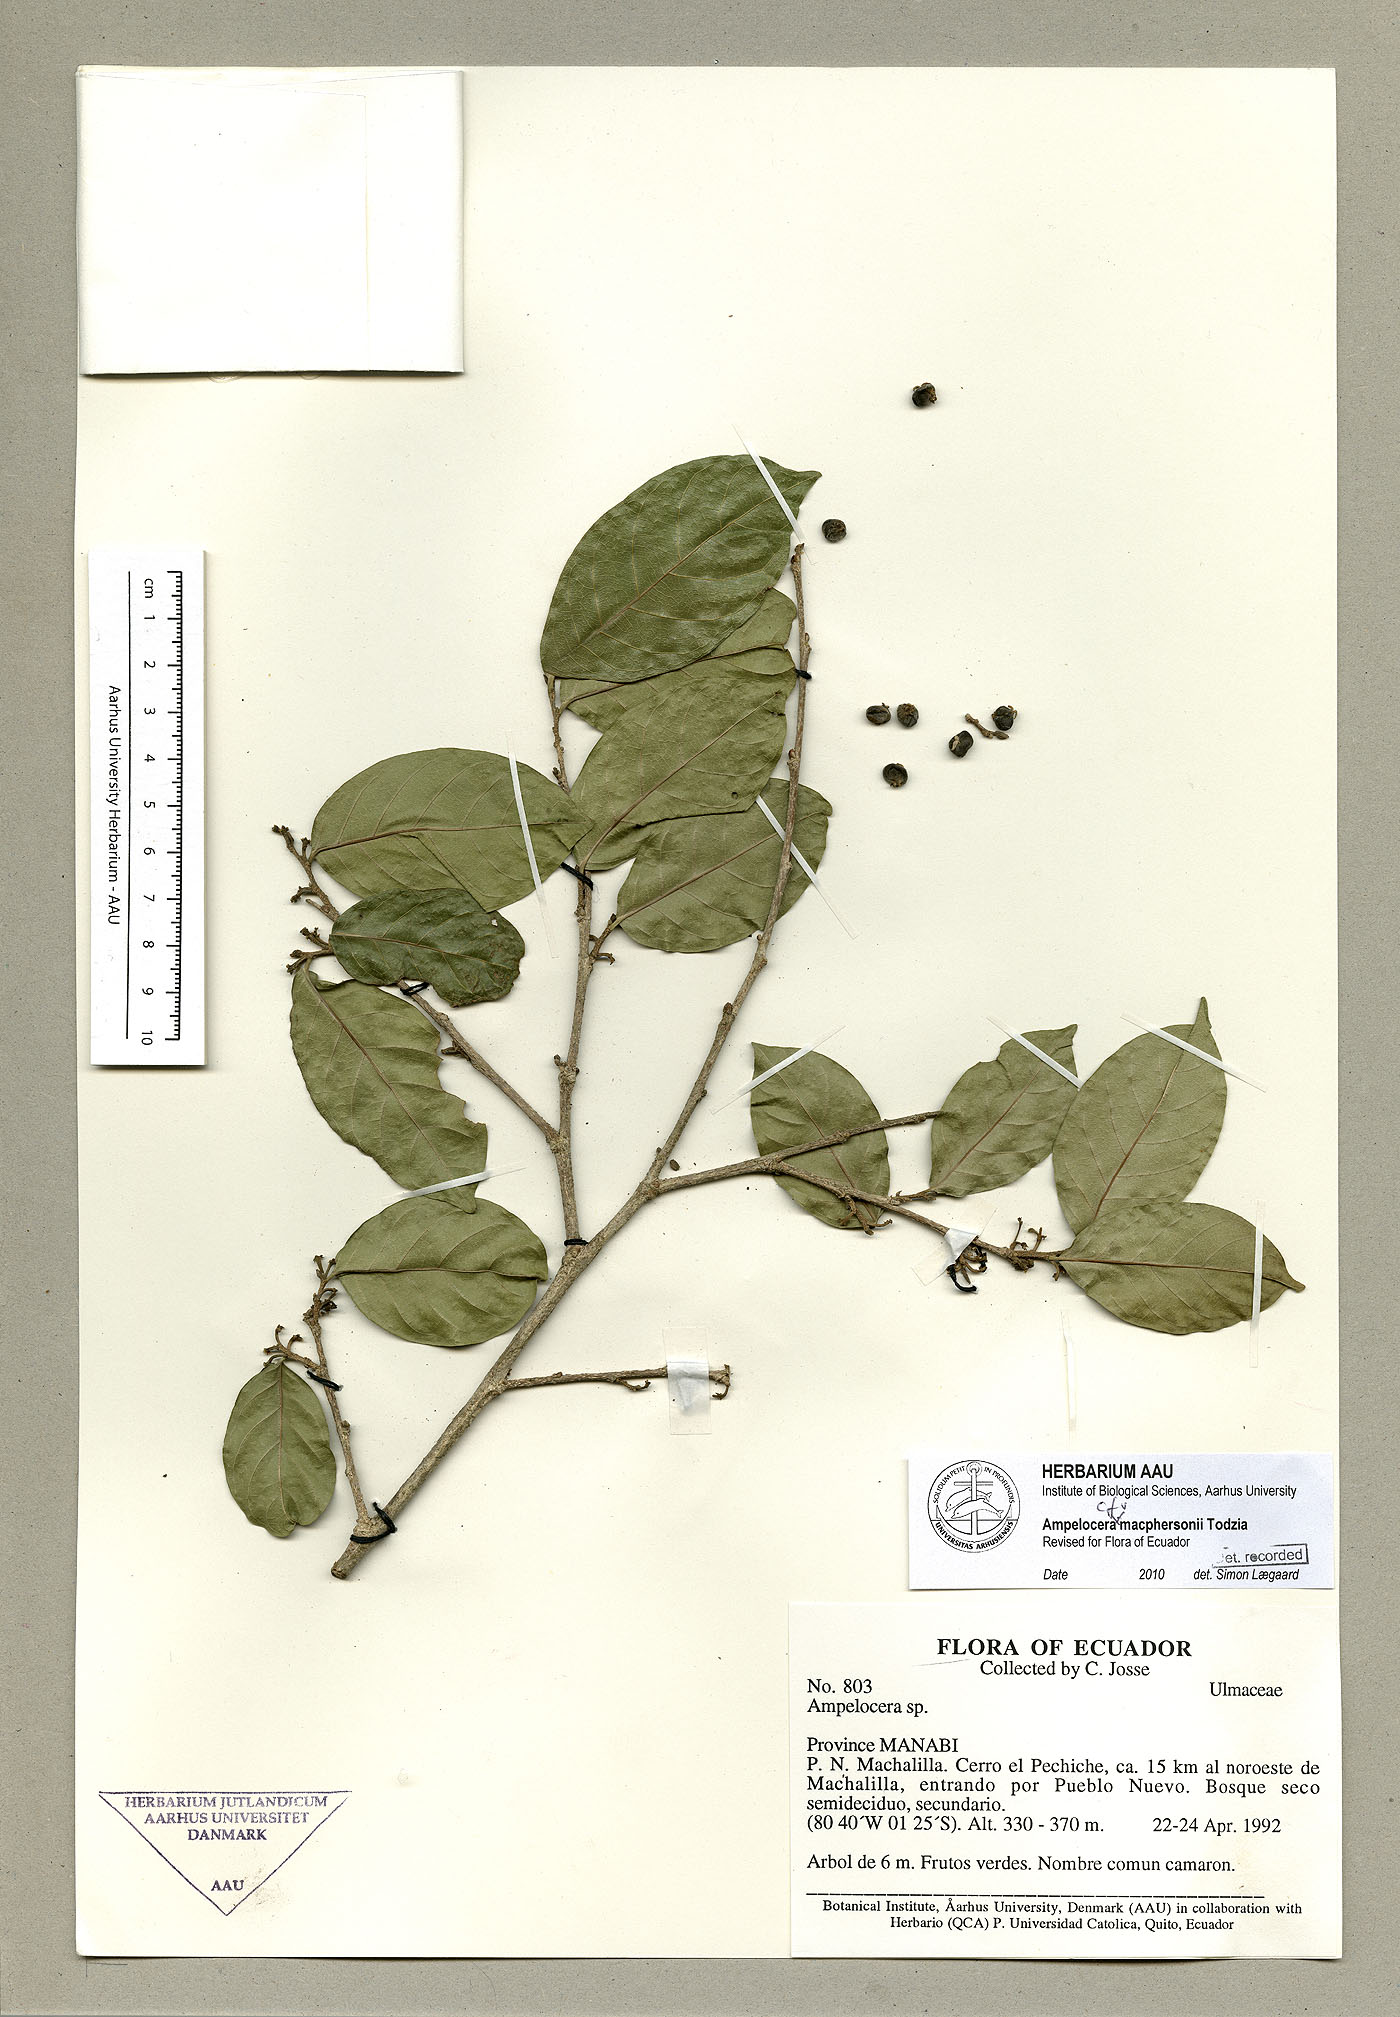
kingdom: Plantae
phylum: Tracheophyta
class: Magnoliopsida
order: Rosales
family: Cannabaceae
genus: Ampelocera
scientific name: Ampelocera macphersonii
